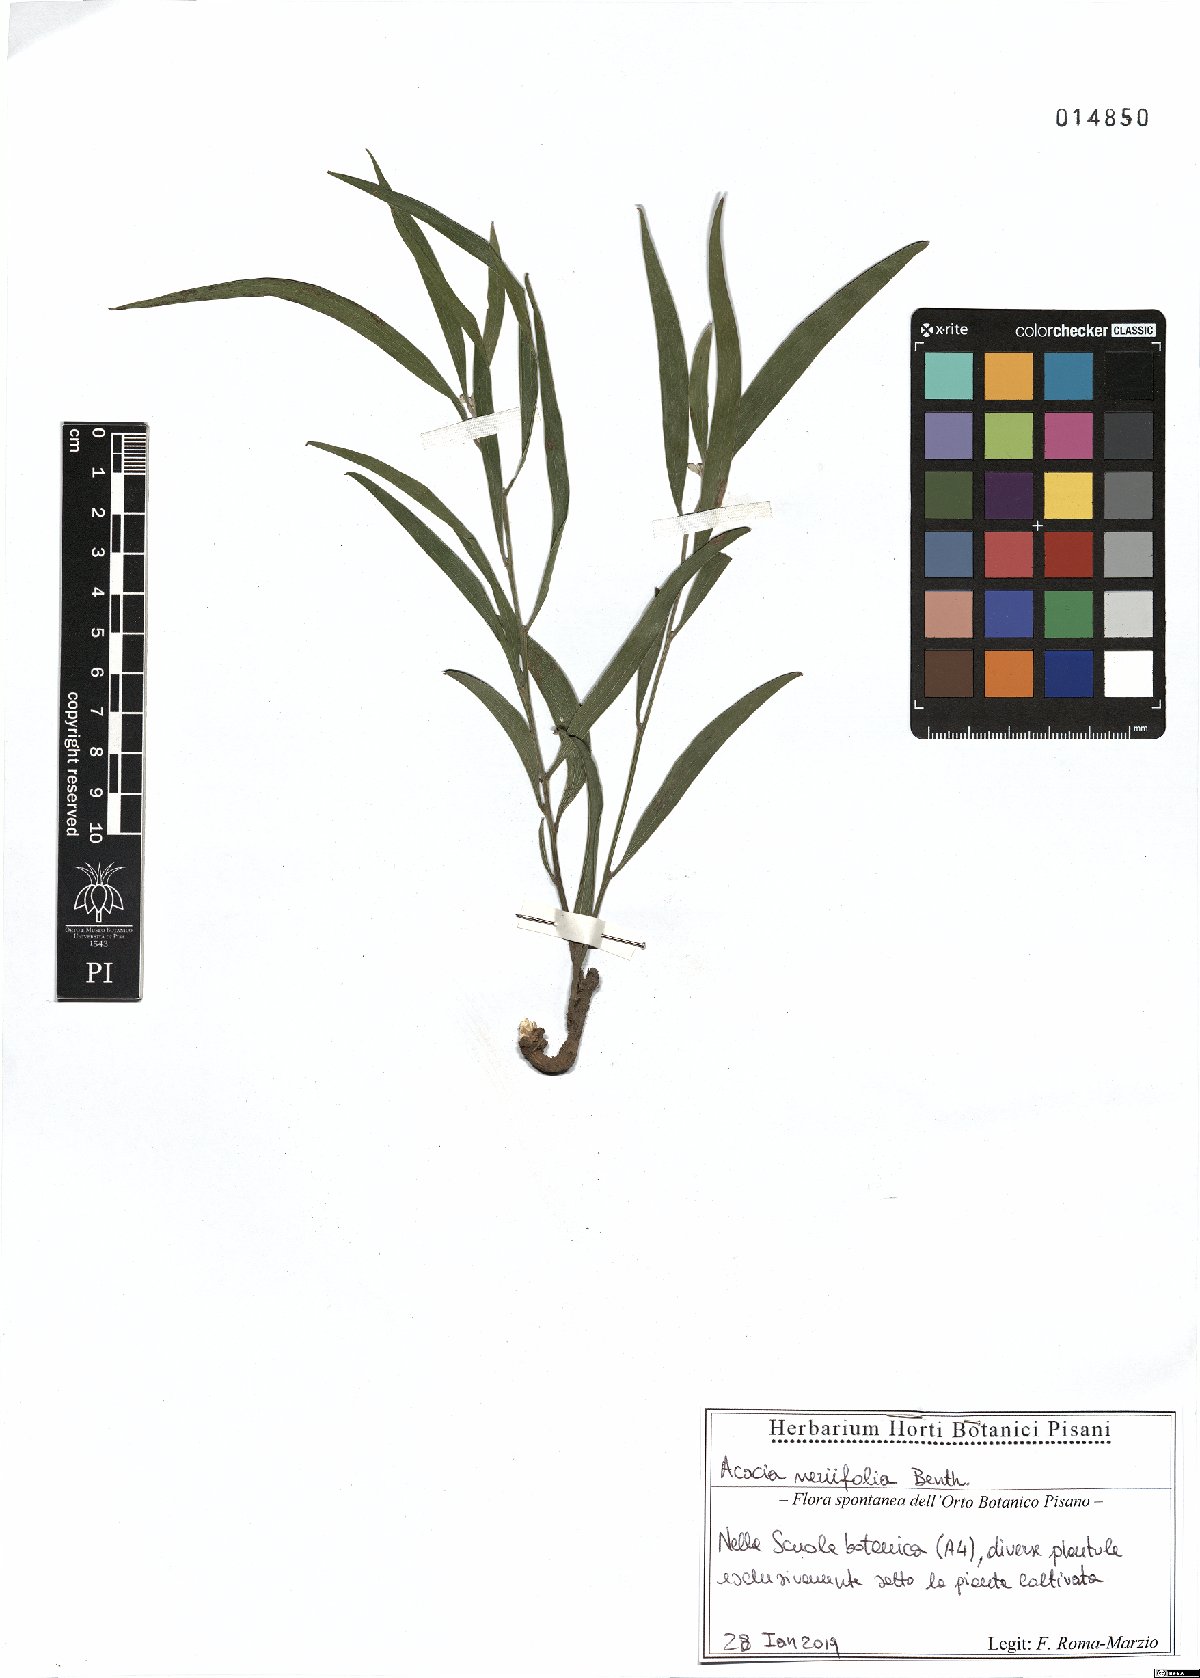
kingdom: Plantae
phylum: Tracheophyta
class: Magnoliopsida
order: Fabales
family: Fabaceae
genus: Acacia
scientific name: Acacia neriifolia
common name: Oleander wattle
